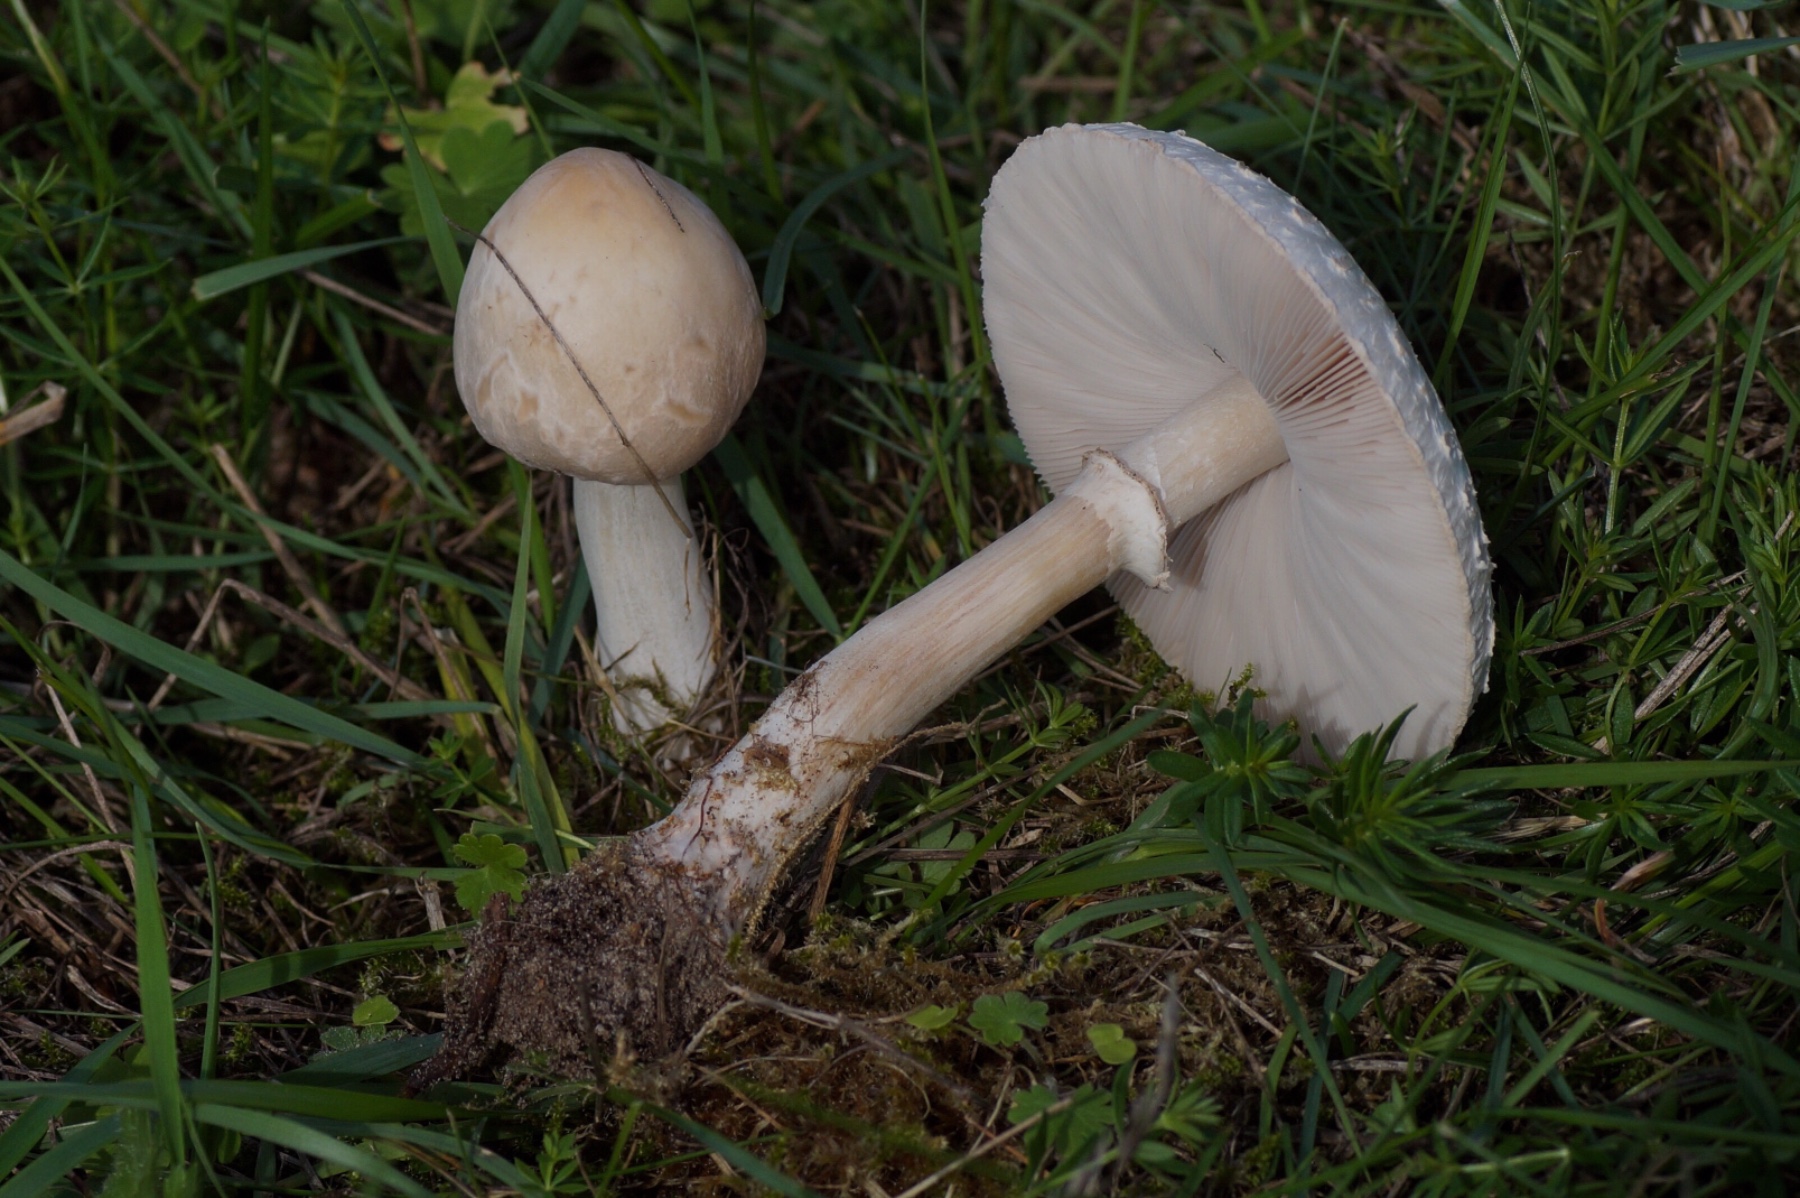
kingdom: Fungi
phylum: Basidiomycota
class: Agaricomycetes
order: Agaricales
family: Agaricaceae
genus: Leucoagaricus
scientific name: Leucoagaricus leucothites
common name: rosabladet silkehat
